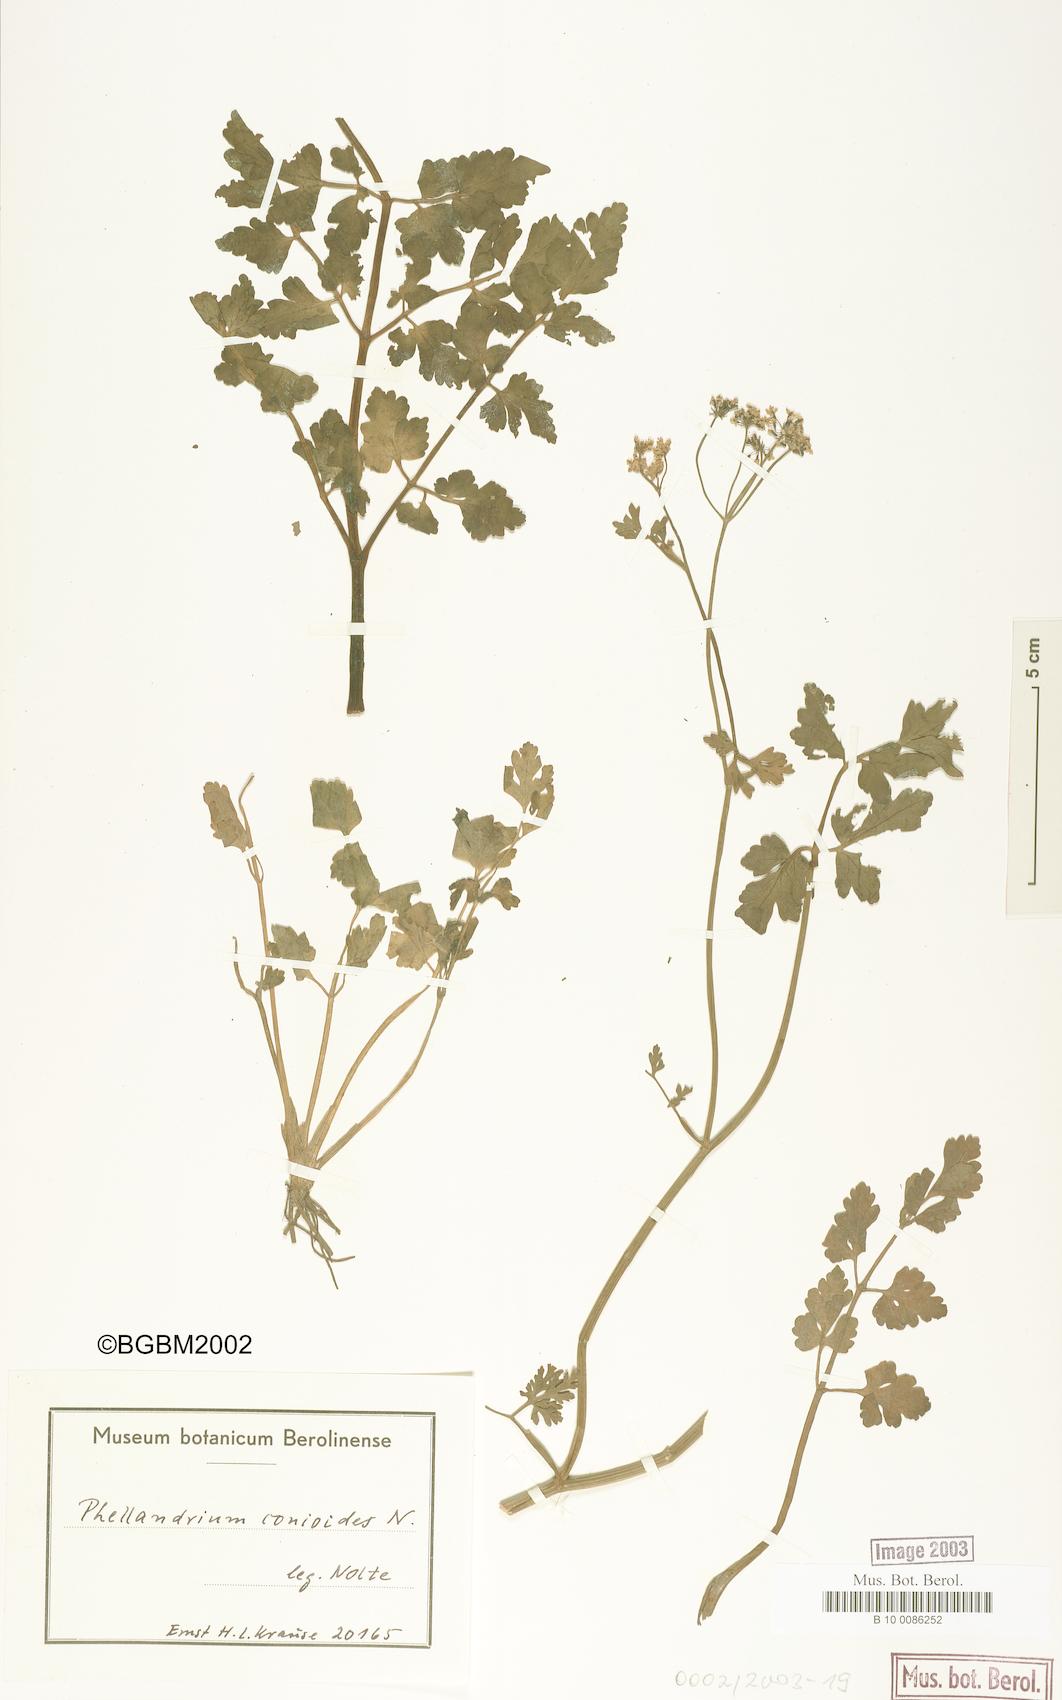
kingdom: Plantae
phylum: Tracheophyta
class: Magnoliopsida
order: Apiales
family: Apiaceae
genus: Oenanthe
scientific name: Oenanthe conioides
